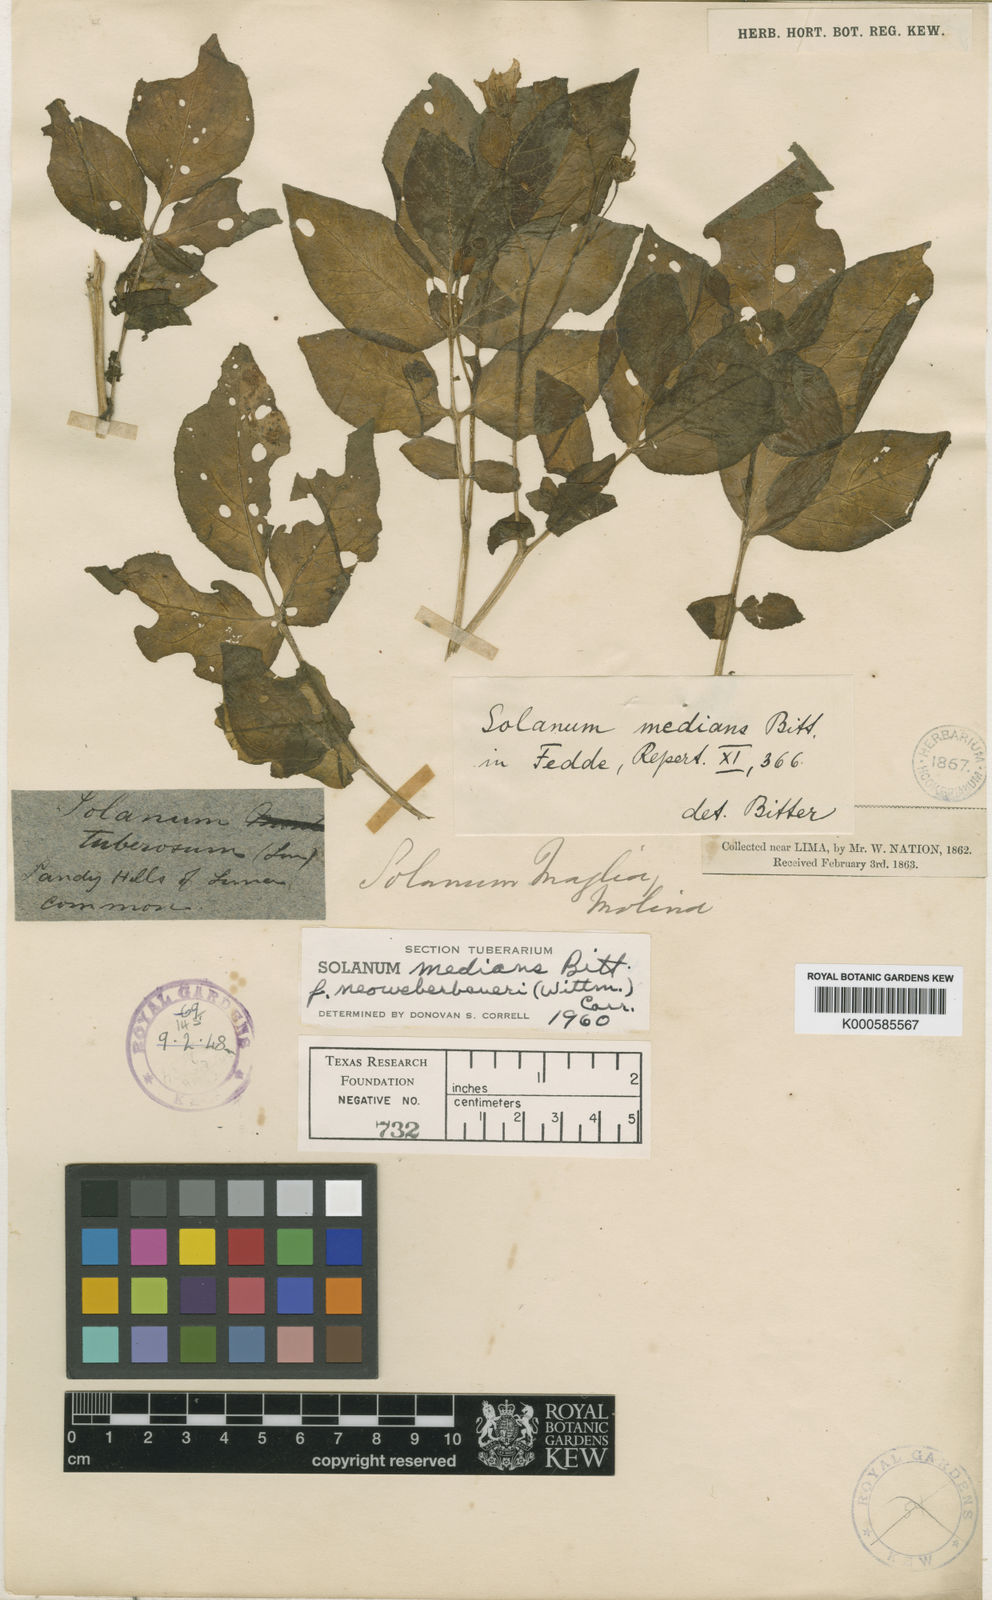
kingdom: Plantae
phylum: Tracheophyta
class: Magnoliopsida
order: Solanales
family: Solanaceae
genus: Solanum
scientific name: Solanum medians
